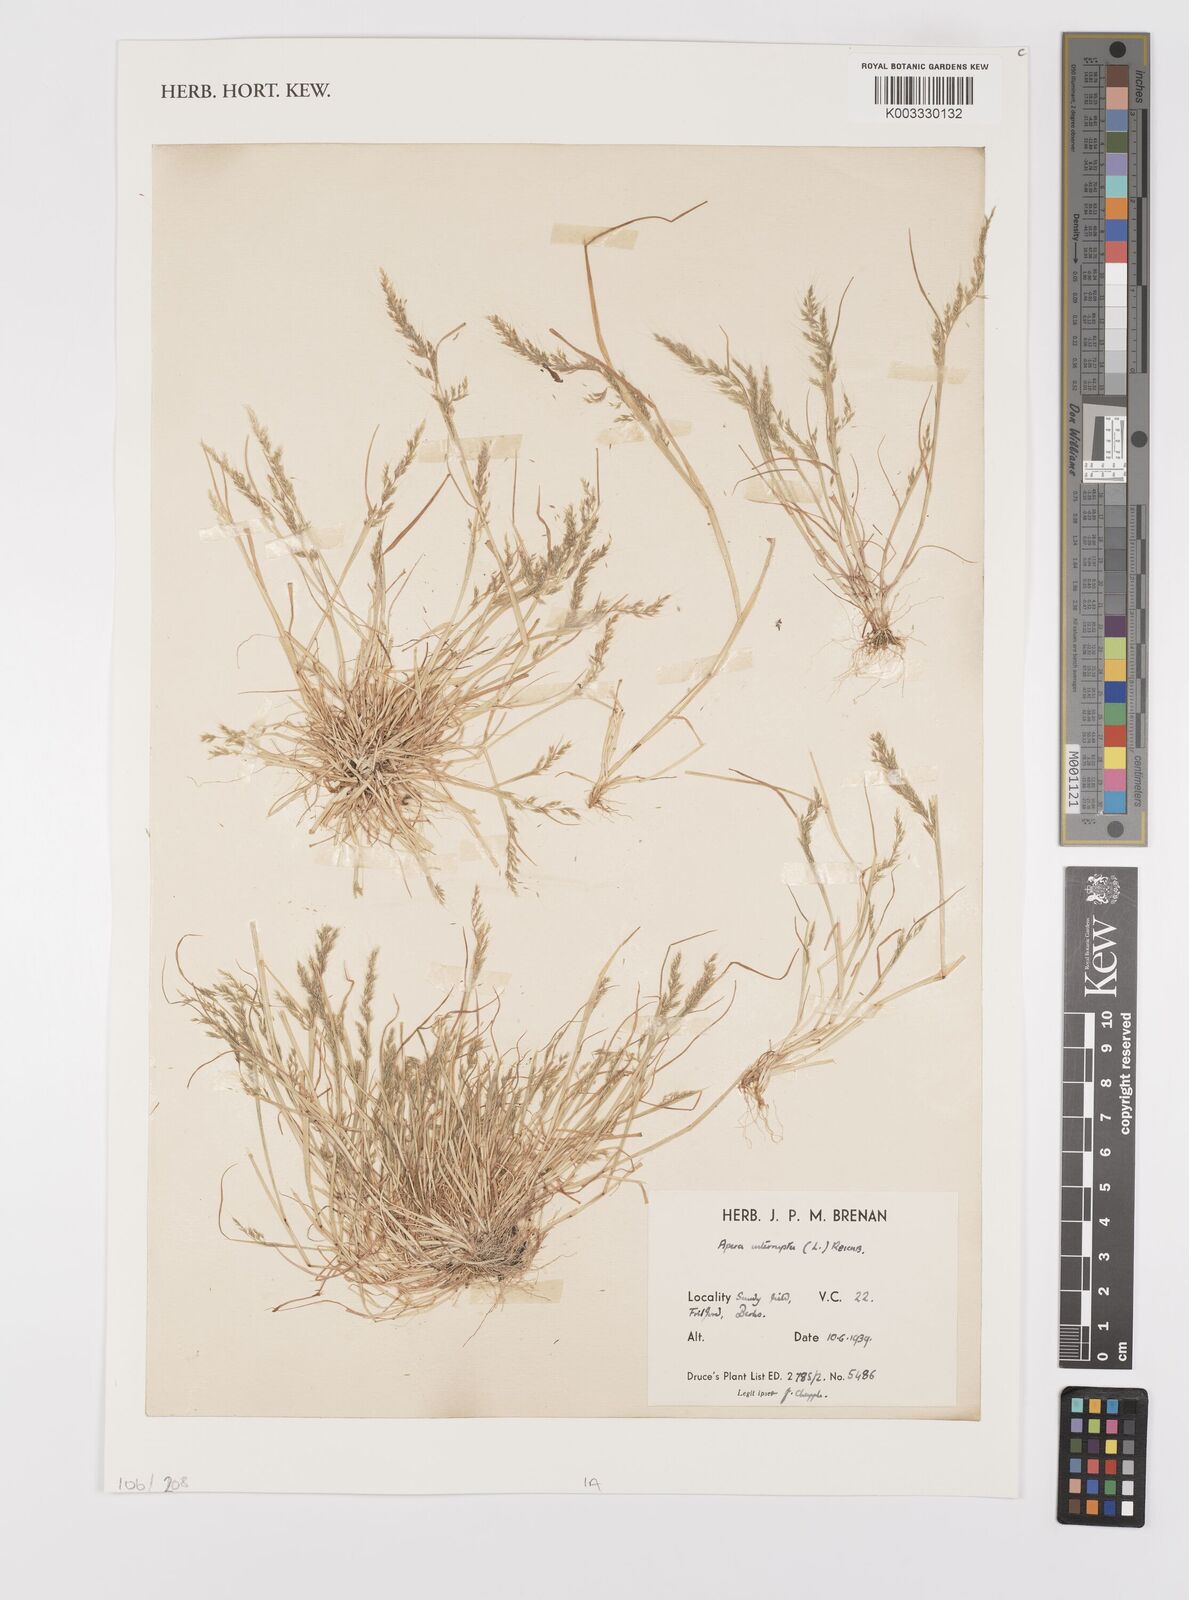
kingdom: Plantae
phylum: Tracheophyta
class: Liliopsida
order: Poales
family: Poaceae
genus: Apera
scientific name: Apera interrupta
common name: Dense silky-bent
